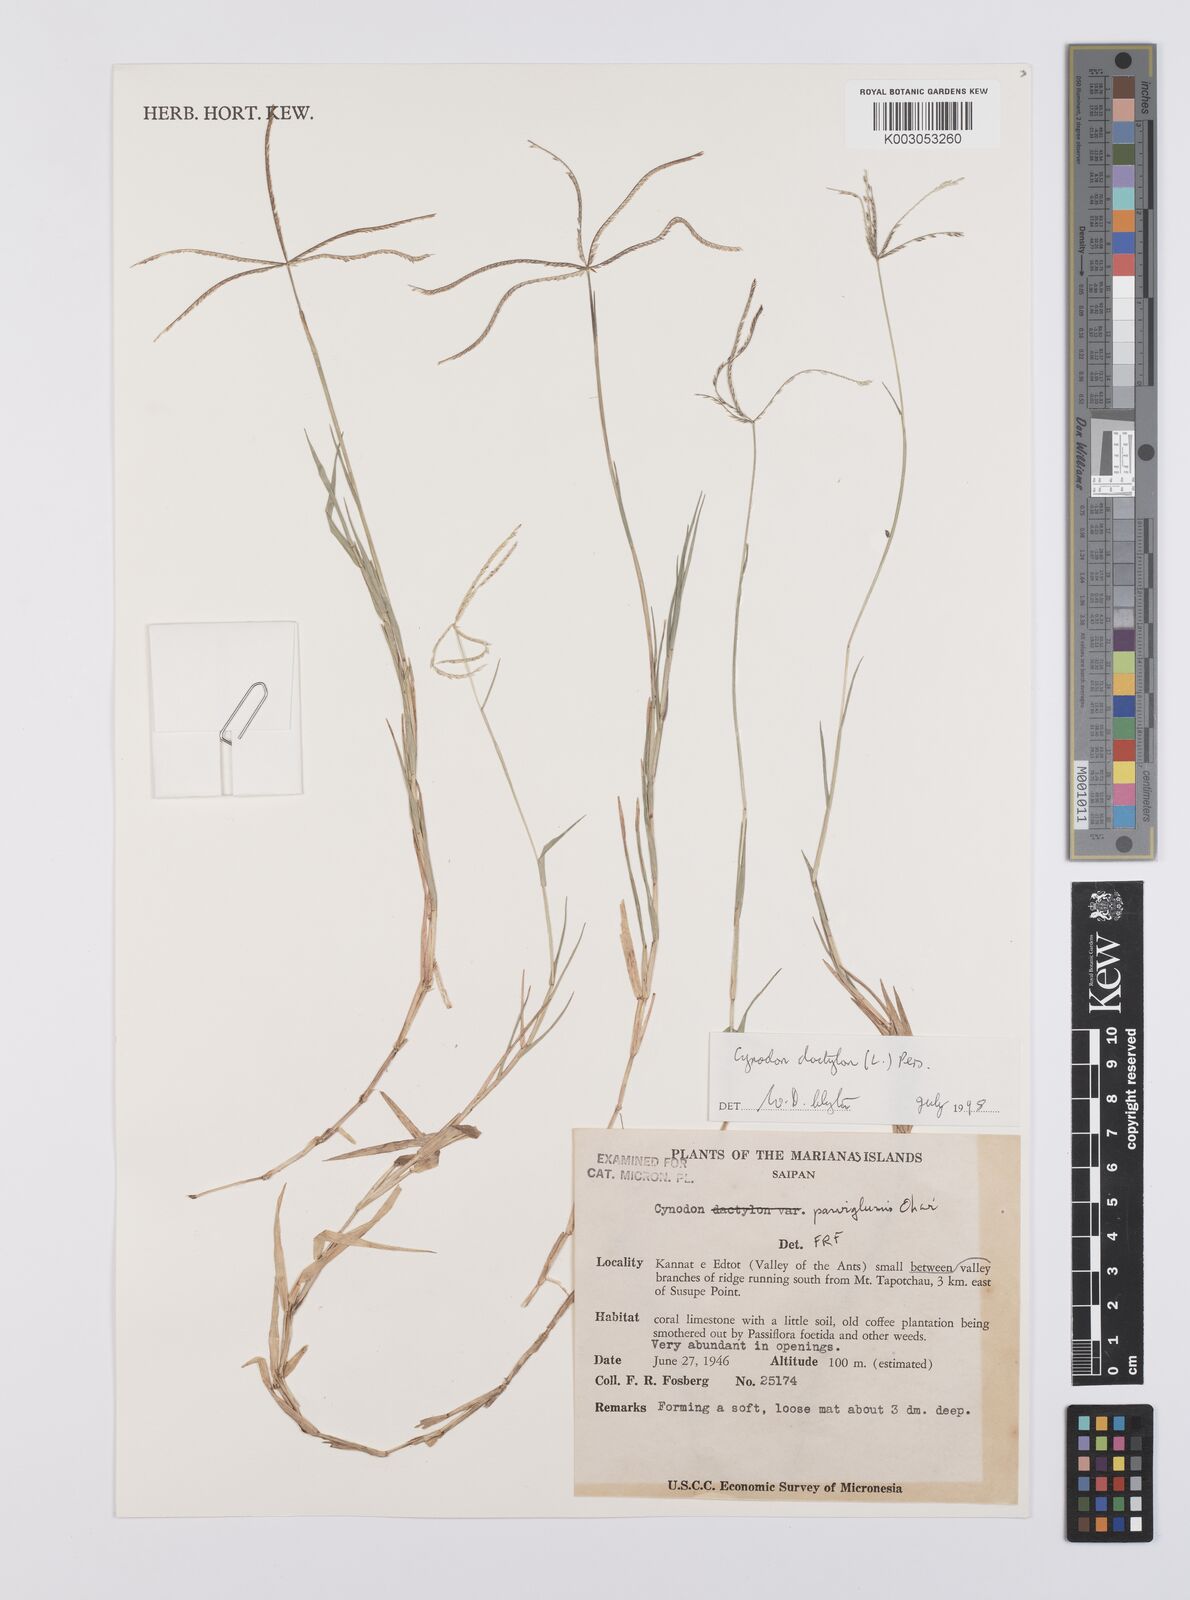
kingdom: Plantae
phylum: Tracheophyta
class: Liliopsida
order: Poales
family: Poaceae
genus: Cynodon
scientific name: Cynodon dactylon
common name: Bermuda grass
